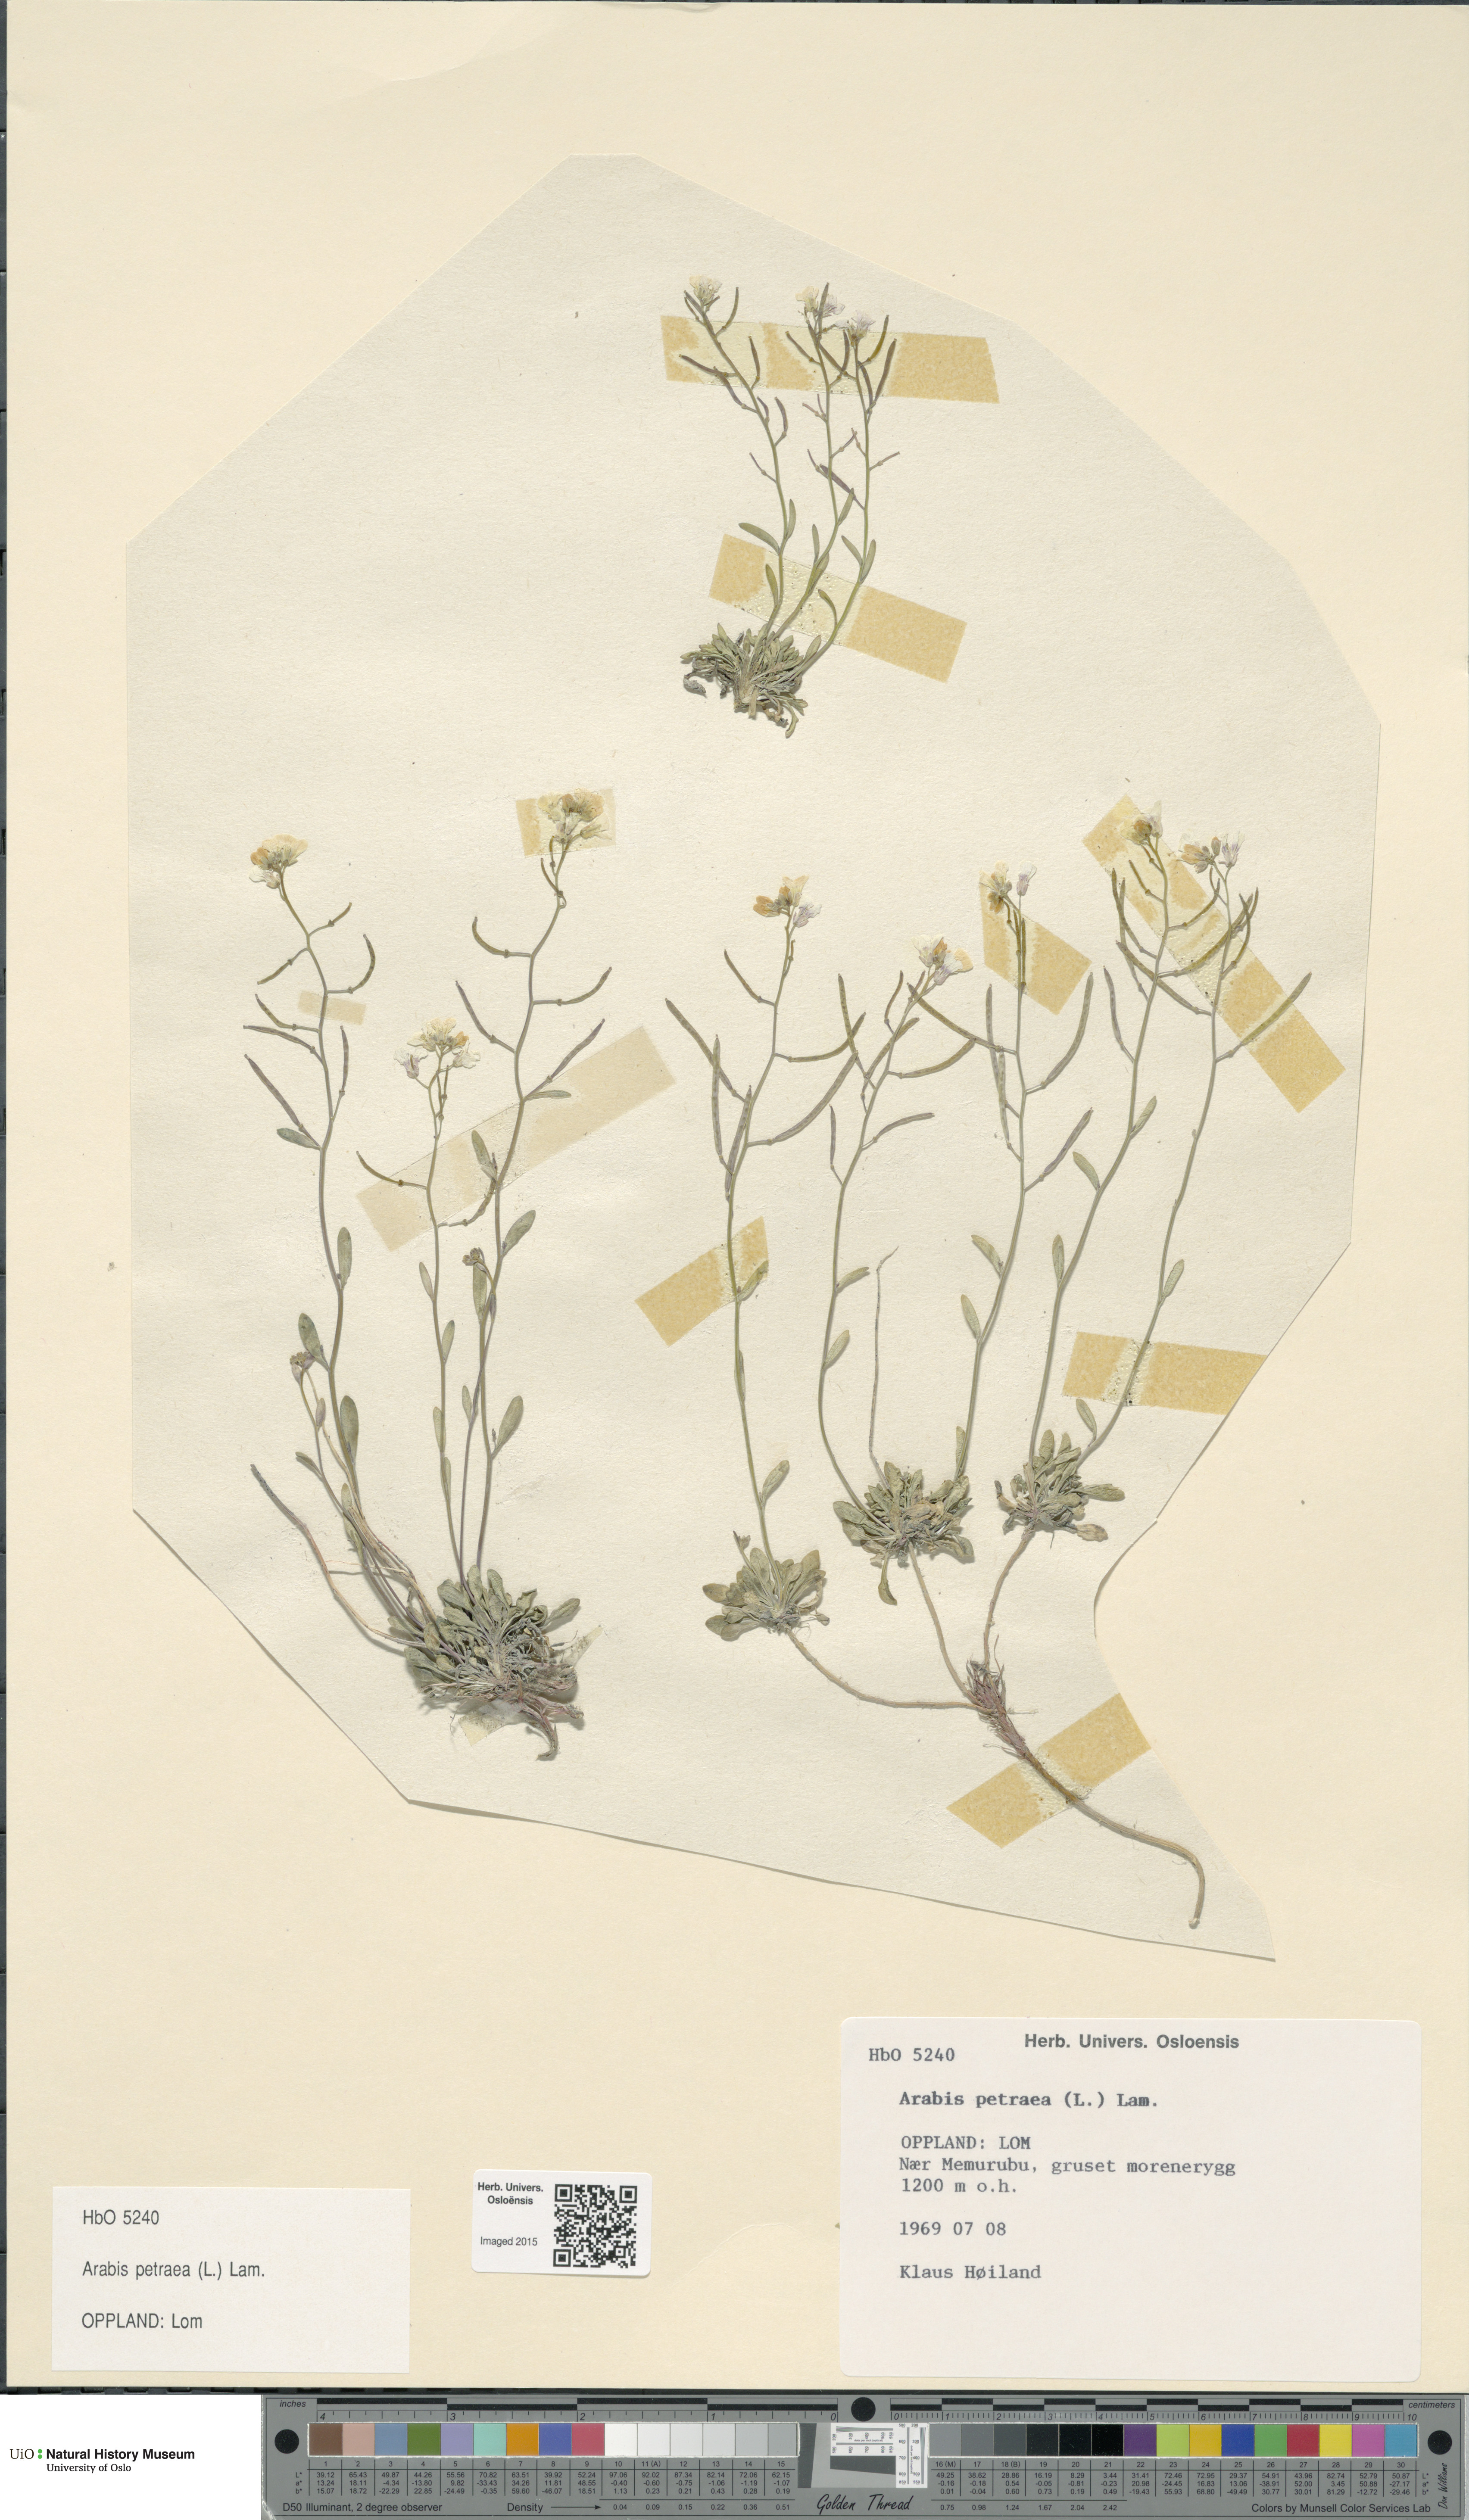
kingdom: Plantae
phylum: Tracheophyta
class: Magnoliopsida
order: Brassicales
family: Brassicaceae
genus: Arabidopsis
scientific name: Arabidopsis petraea
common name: Northern rock-cress
